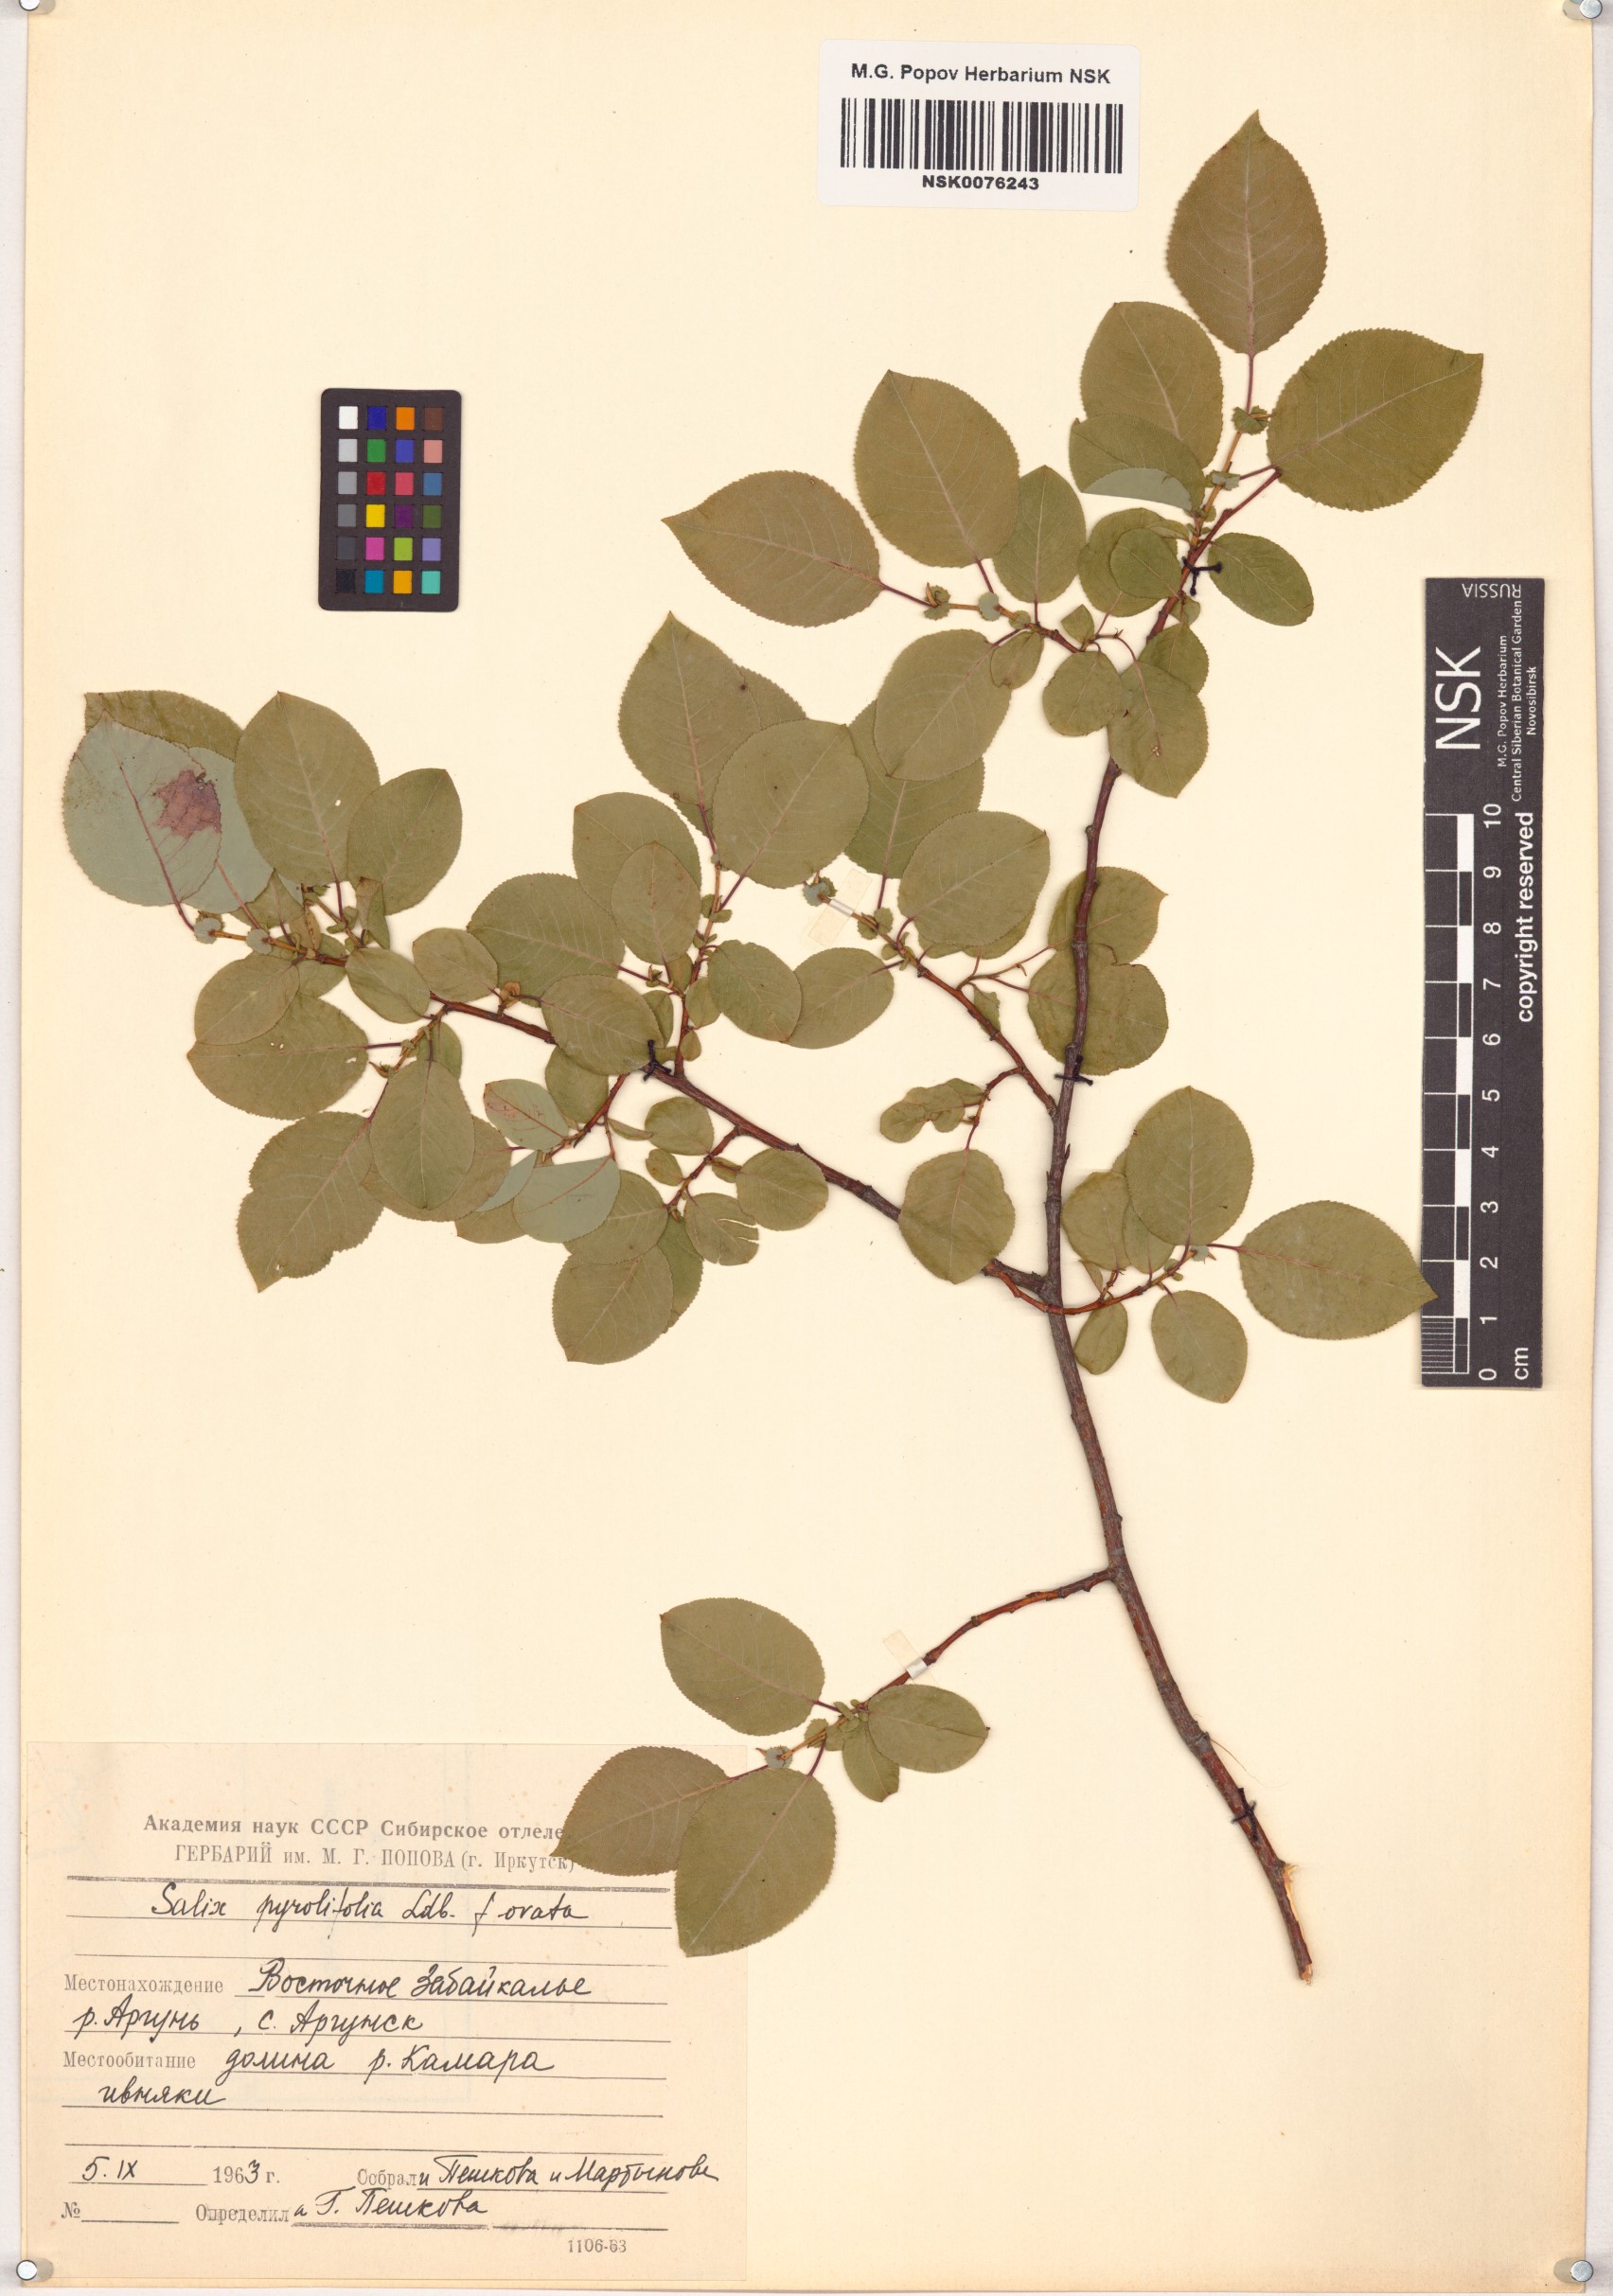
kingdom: Plantae
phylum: Tracheophyta
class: Magnoliopsida
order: Malpighiales
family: Salicaceae
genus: Salix
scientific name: Salix pyrolifolia
